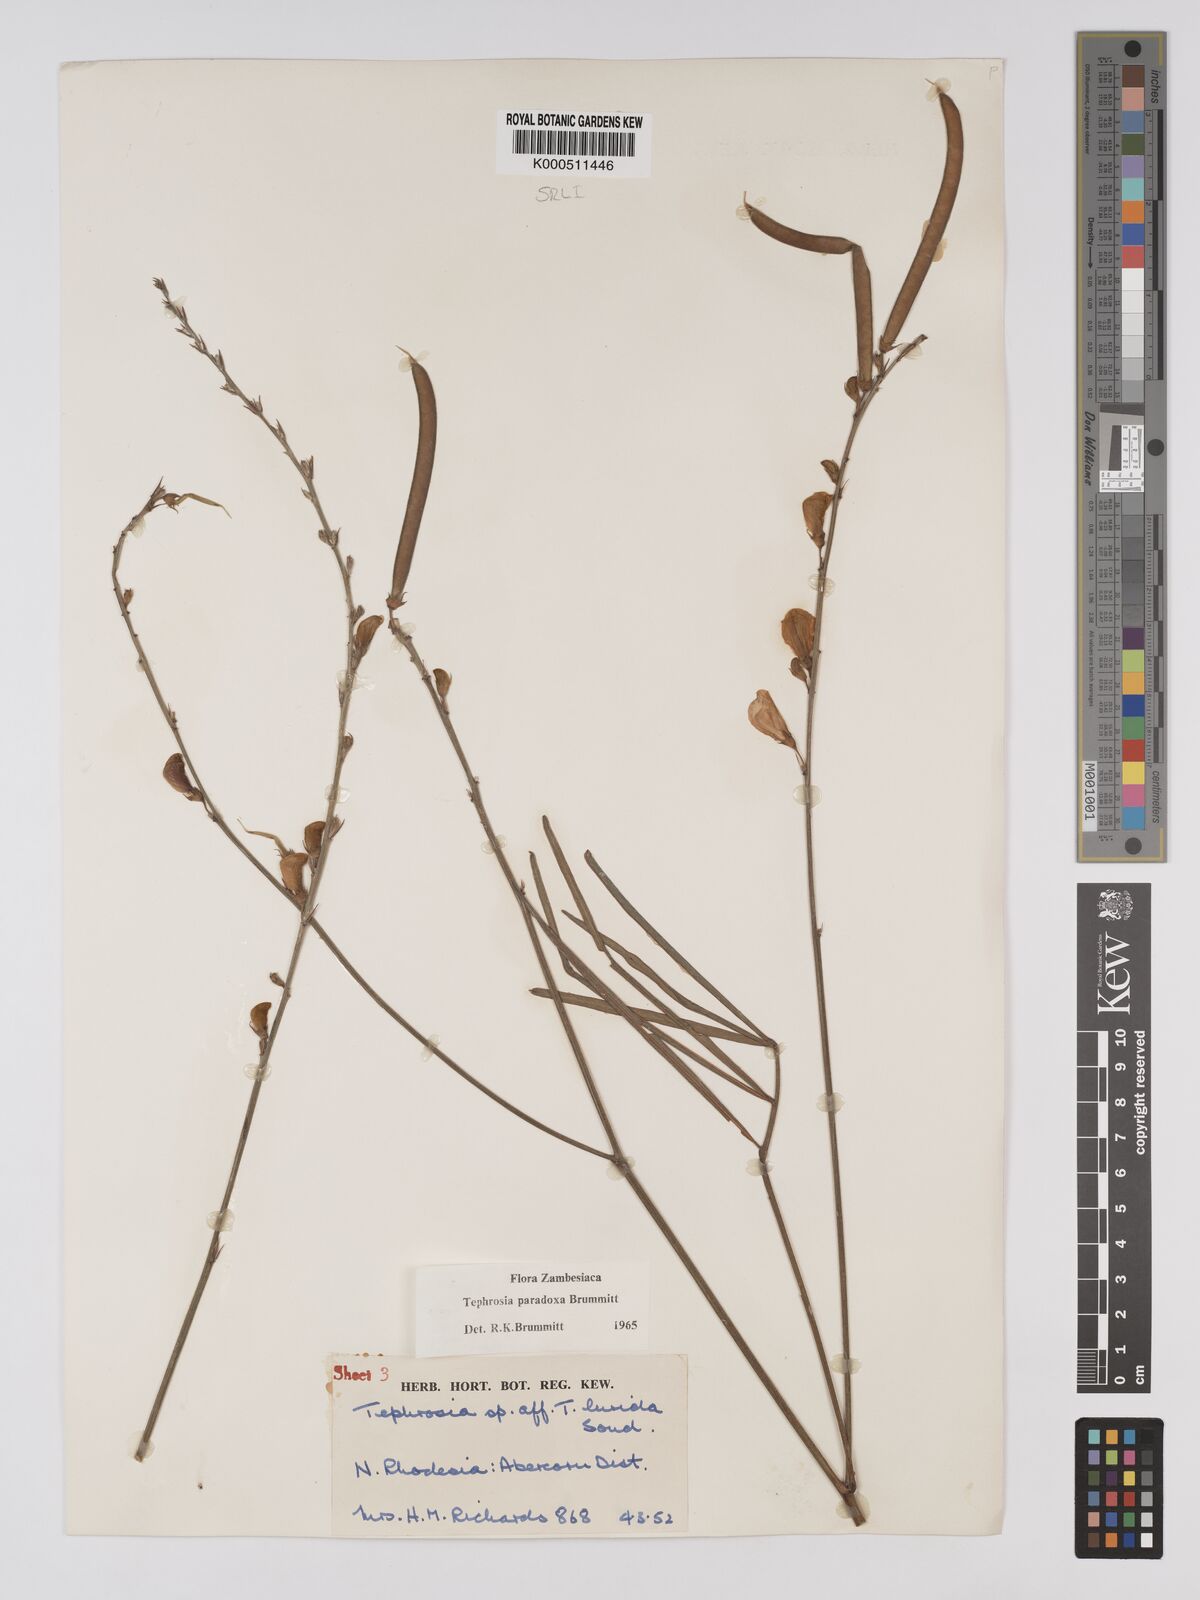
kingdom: Plantae
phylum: Tracheophyta
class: Magnoliopsida
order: Fabales
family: Fabaceae
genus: Tephrosia
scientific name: Tephrosia paradoxa
